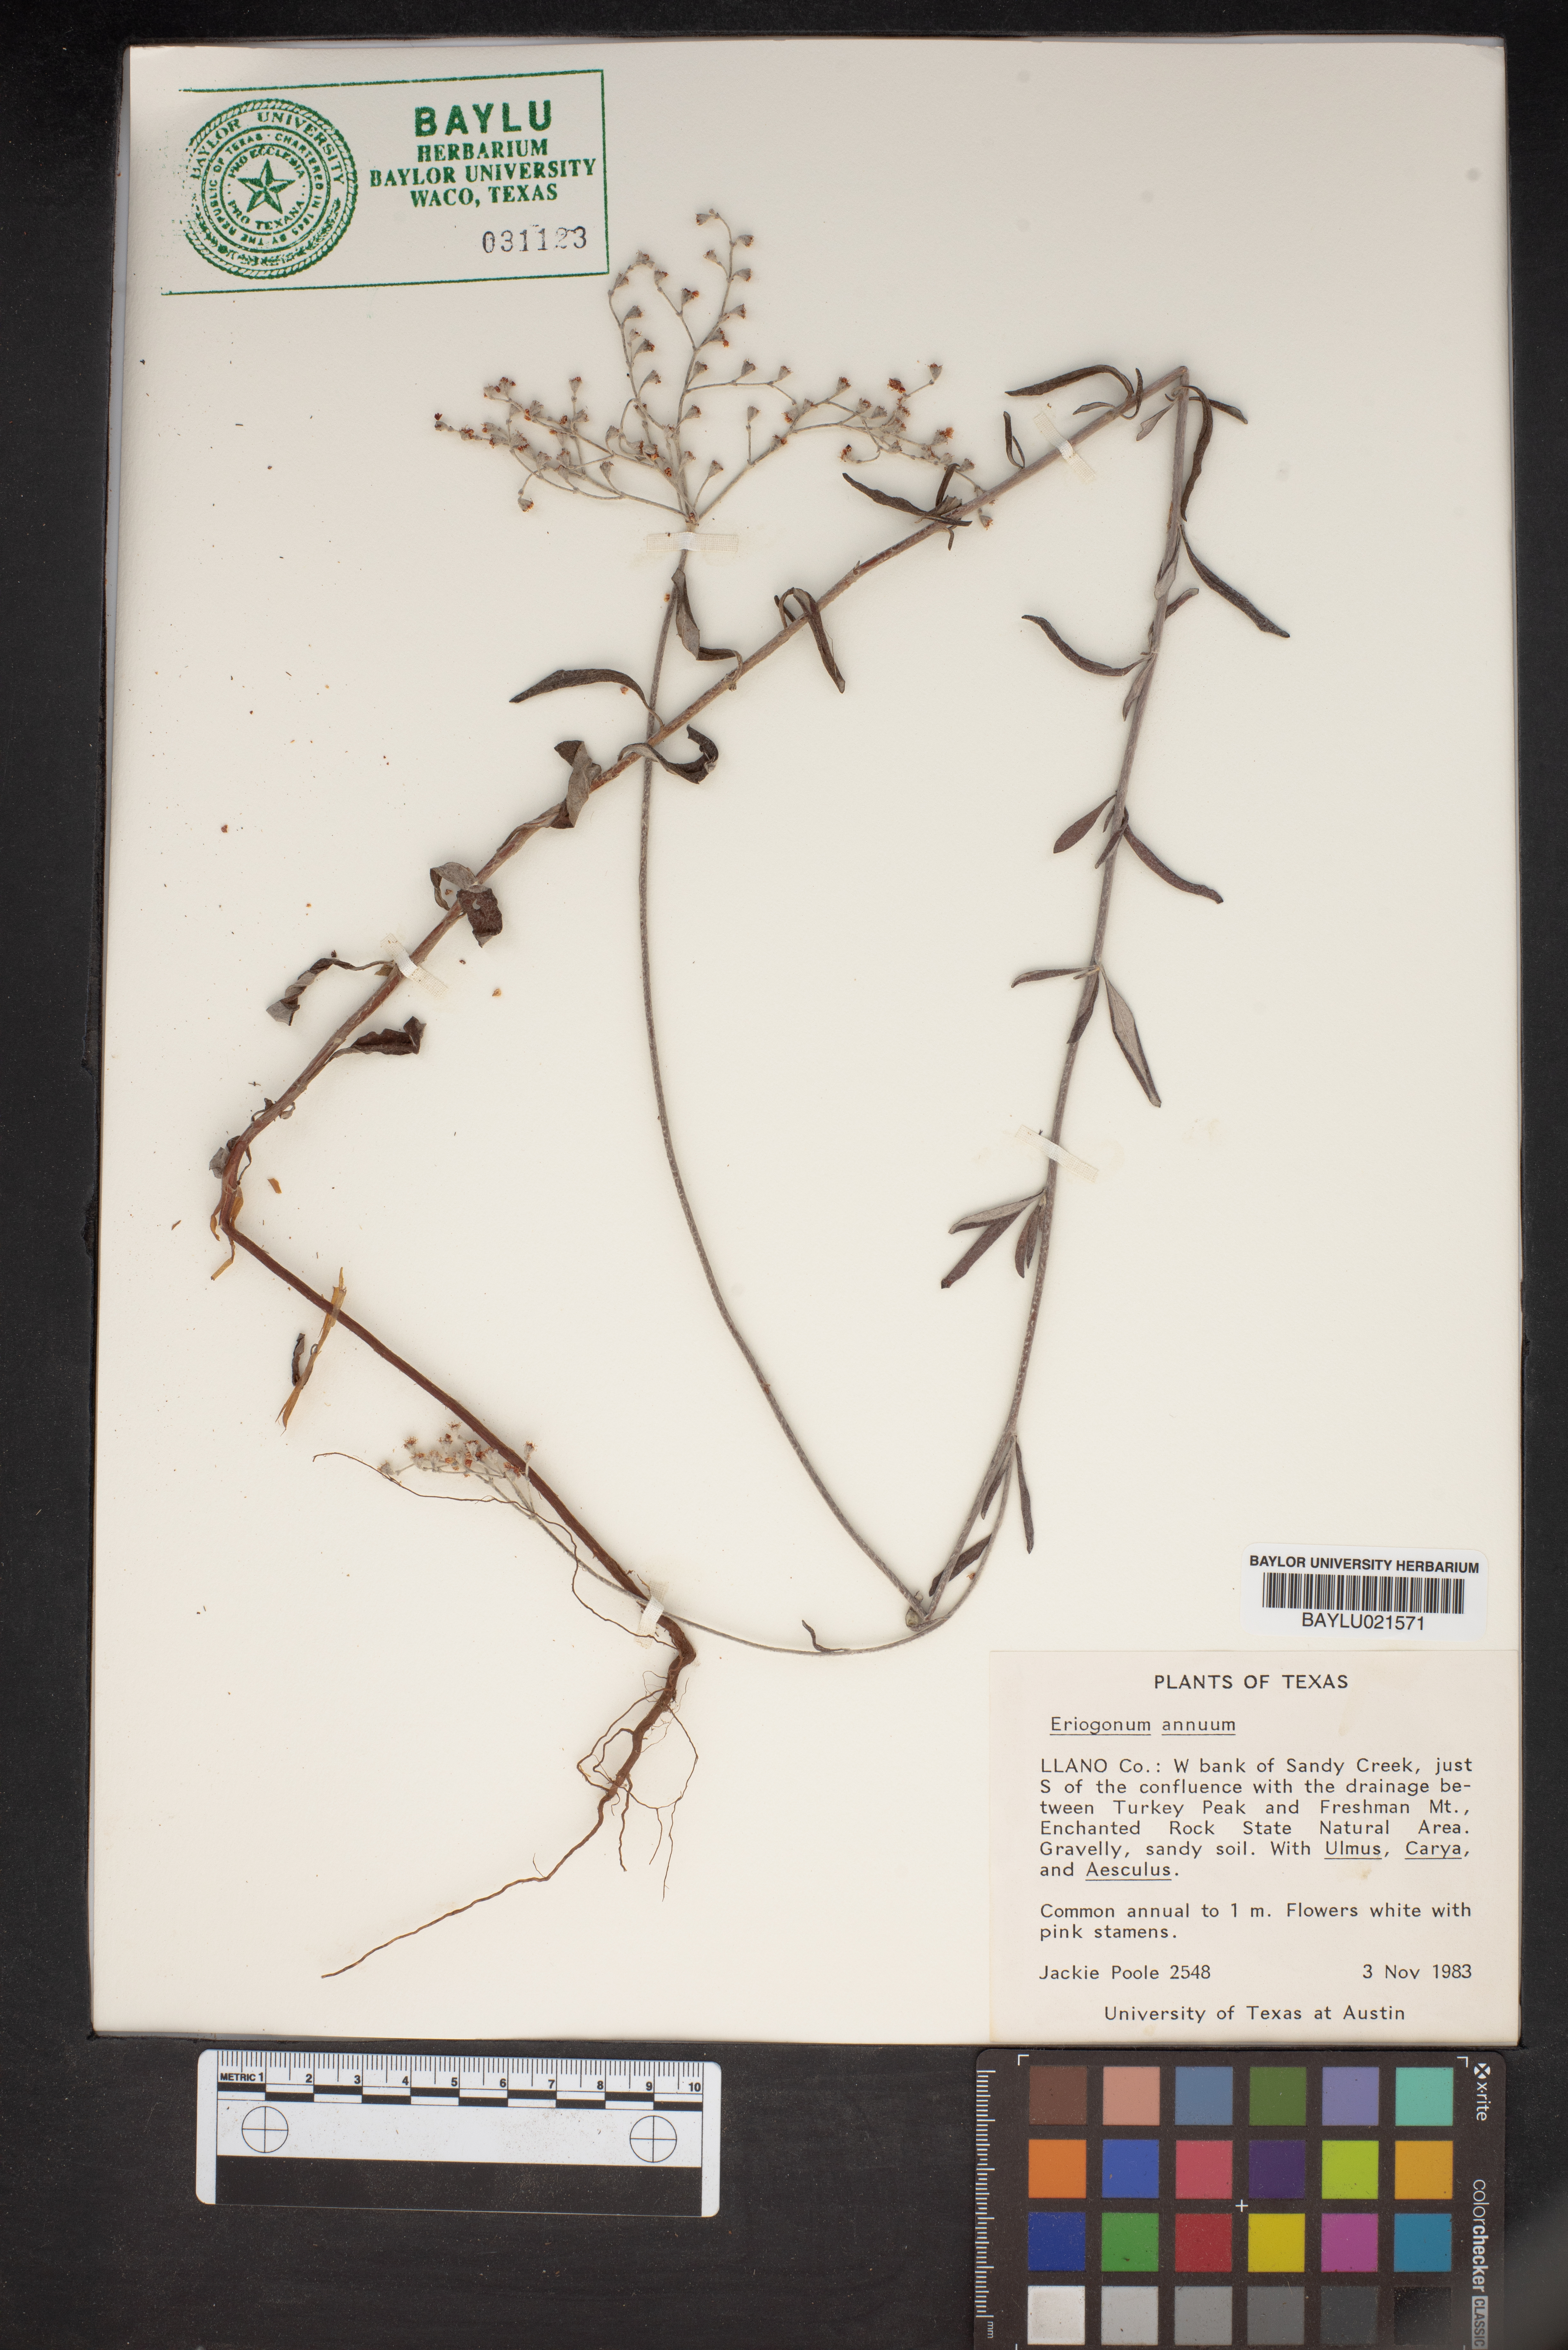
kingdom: Plantae
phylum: Tracheophyta
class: Magnoliopsida
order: Caryophyllales
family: Polygonaceae
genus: Eriogonum
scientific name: Eriogonum annuum
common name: Annual wild buckwheat
